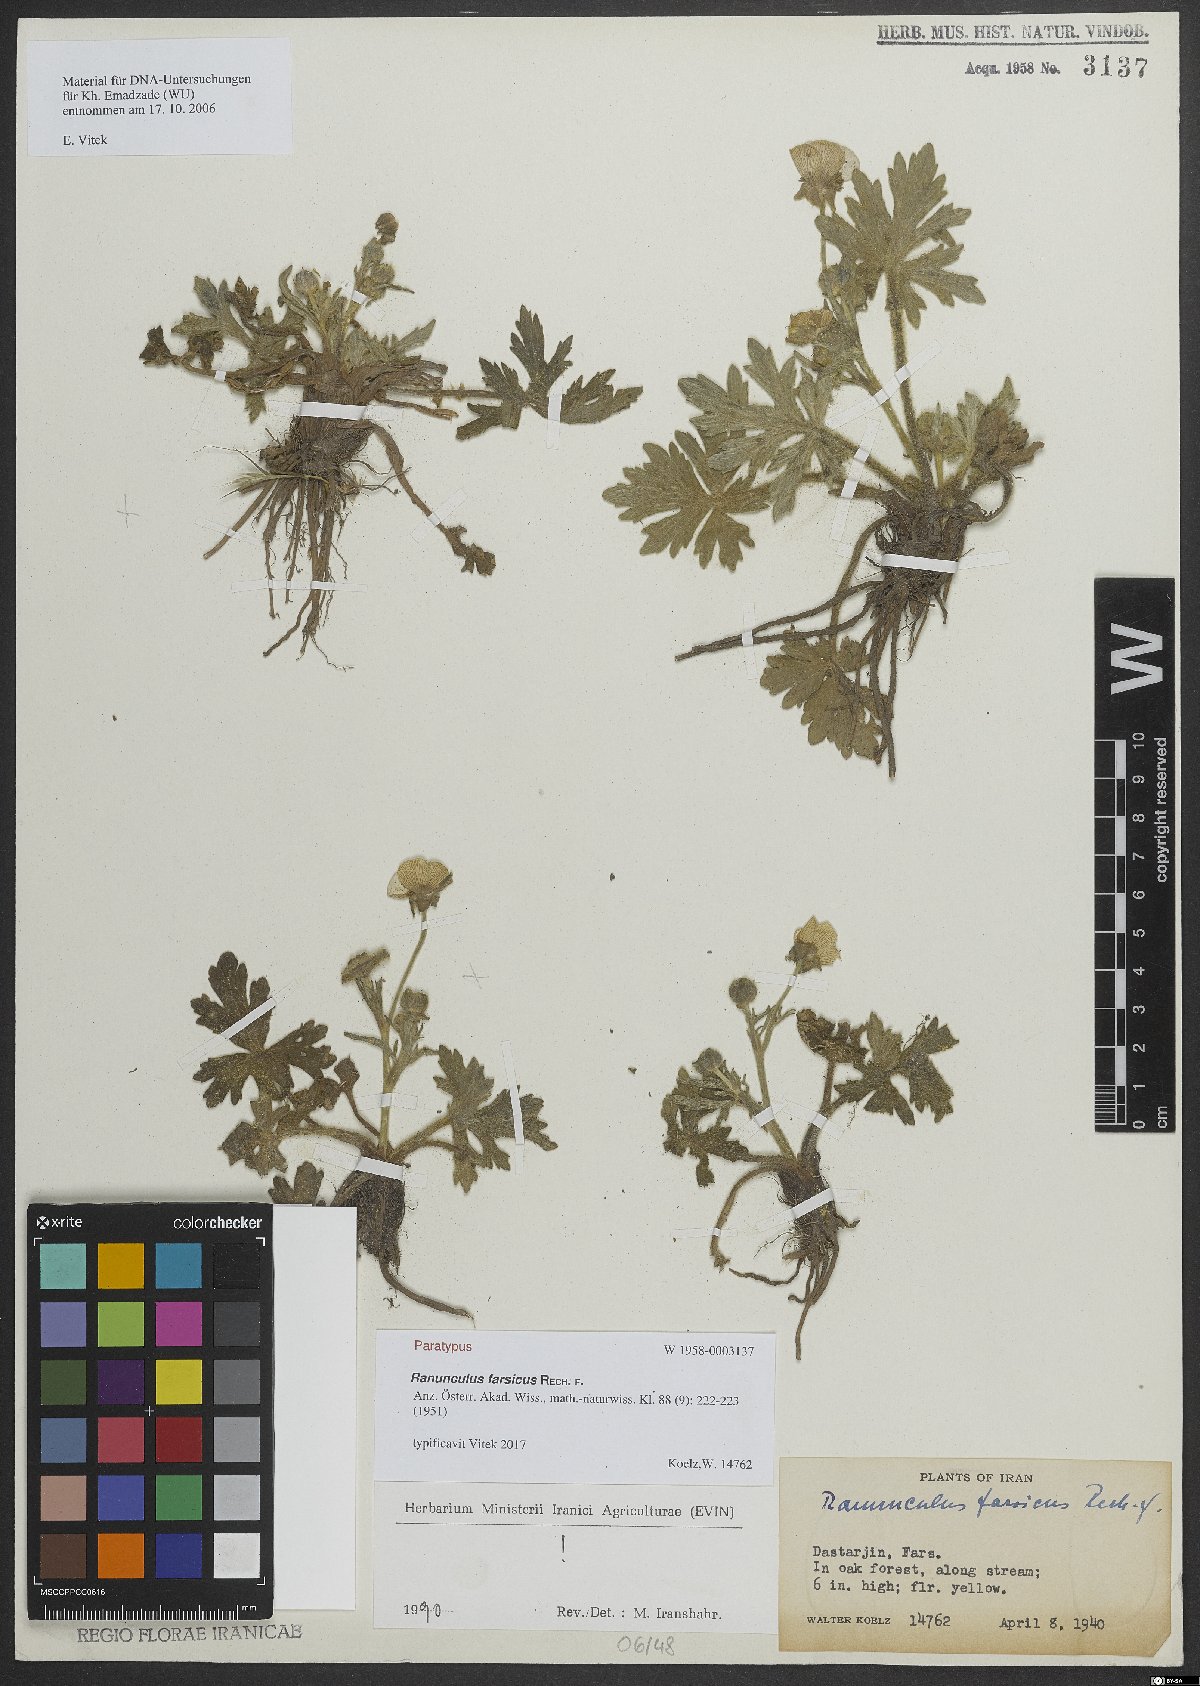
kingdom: Plantae
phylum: Tracheophyta
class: Magnoliopsida
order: Ranunculales
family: Ranunculaceae
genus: Ranunculus
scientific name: Ranunculus constantinopolitanus
